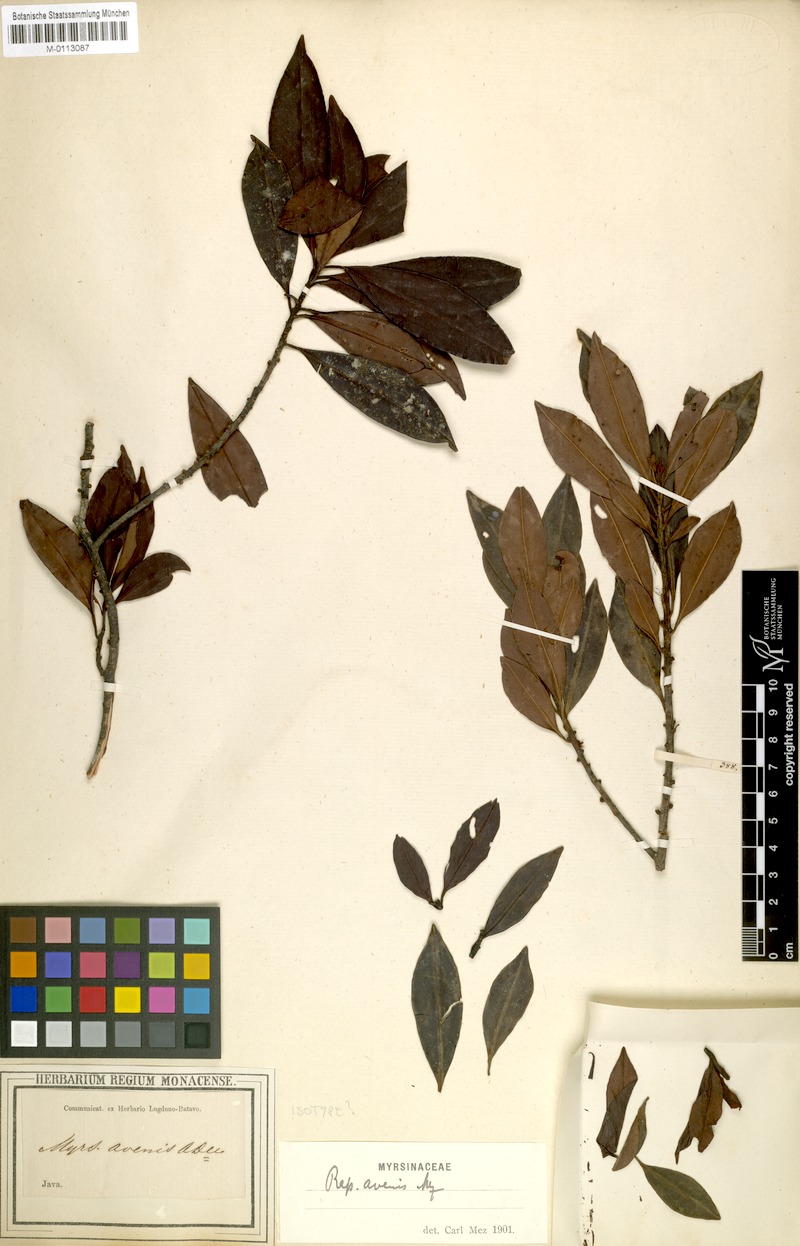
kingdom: Plantae
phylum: Tracheophyta
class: Magnoliopsida
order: Ericales
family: Primulaceae
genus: Myrsine
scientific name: Myrsine avenis
